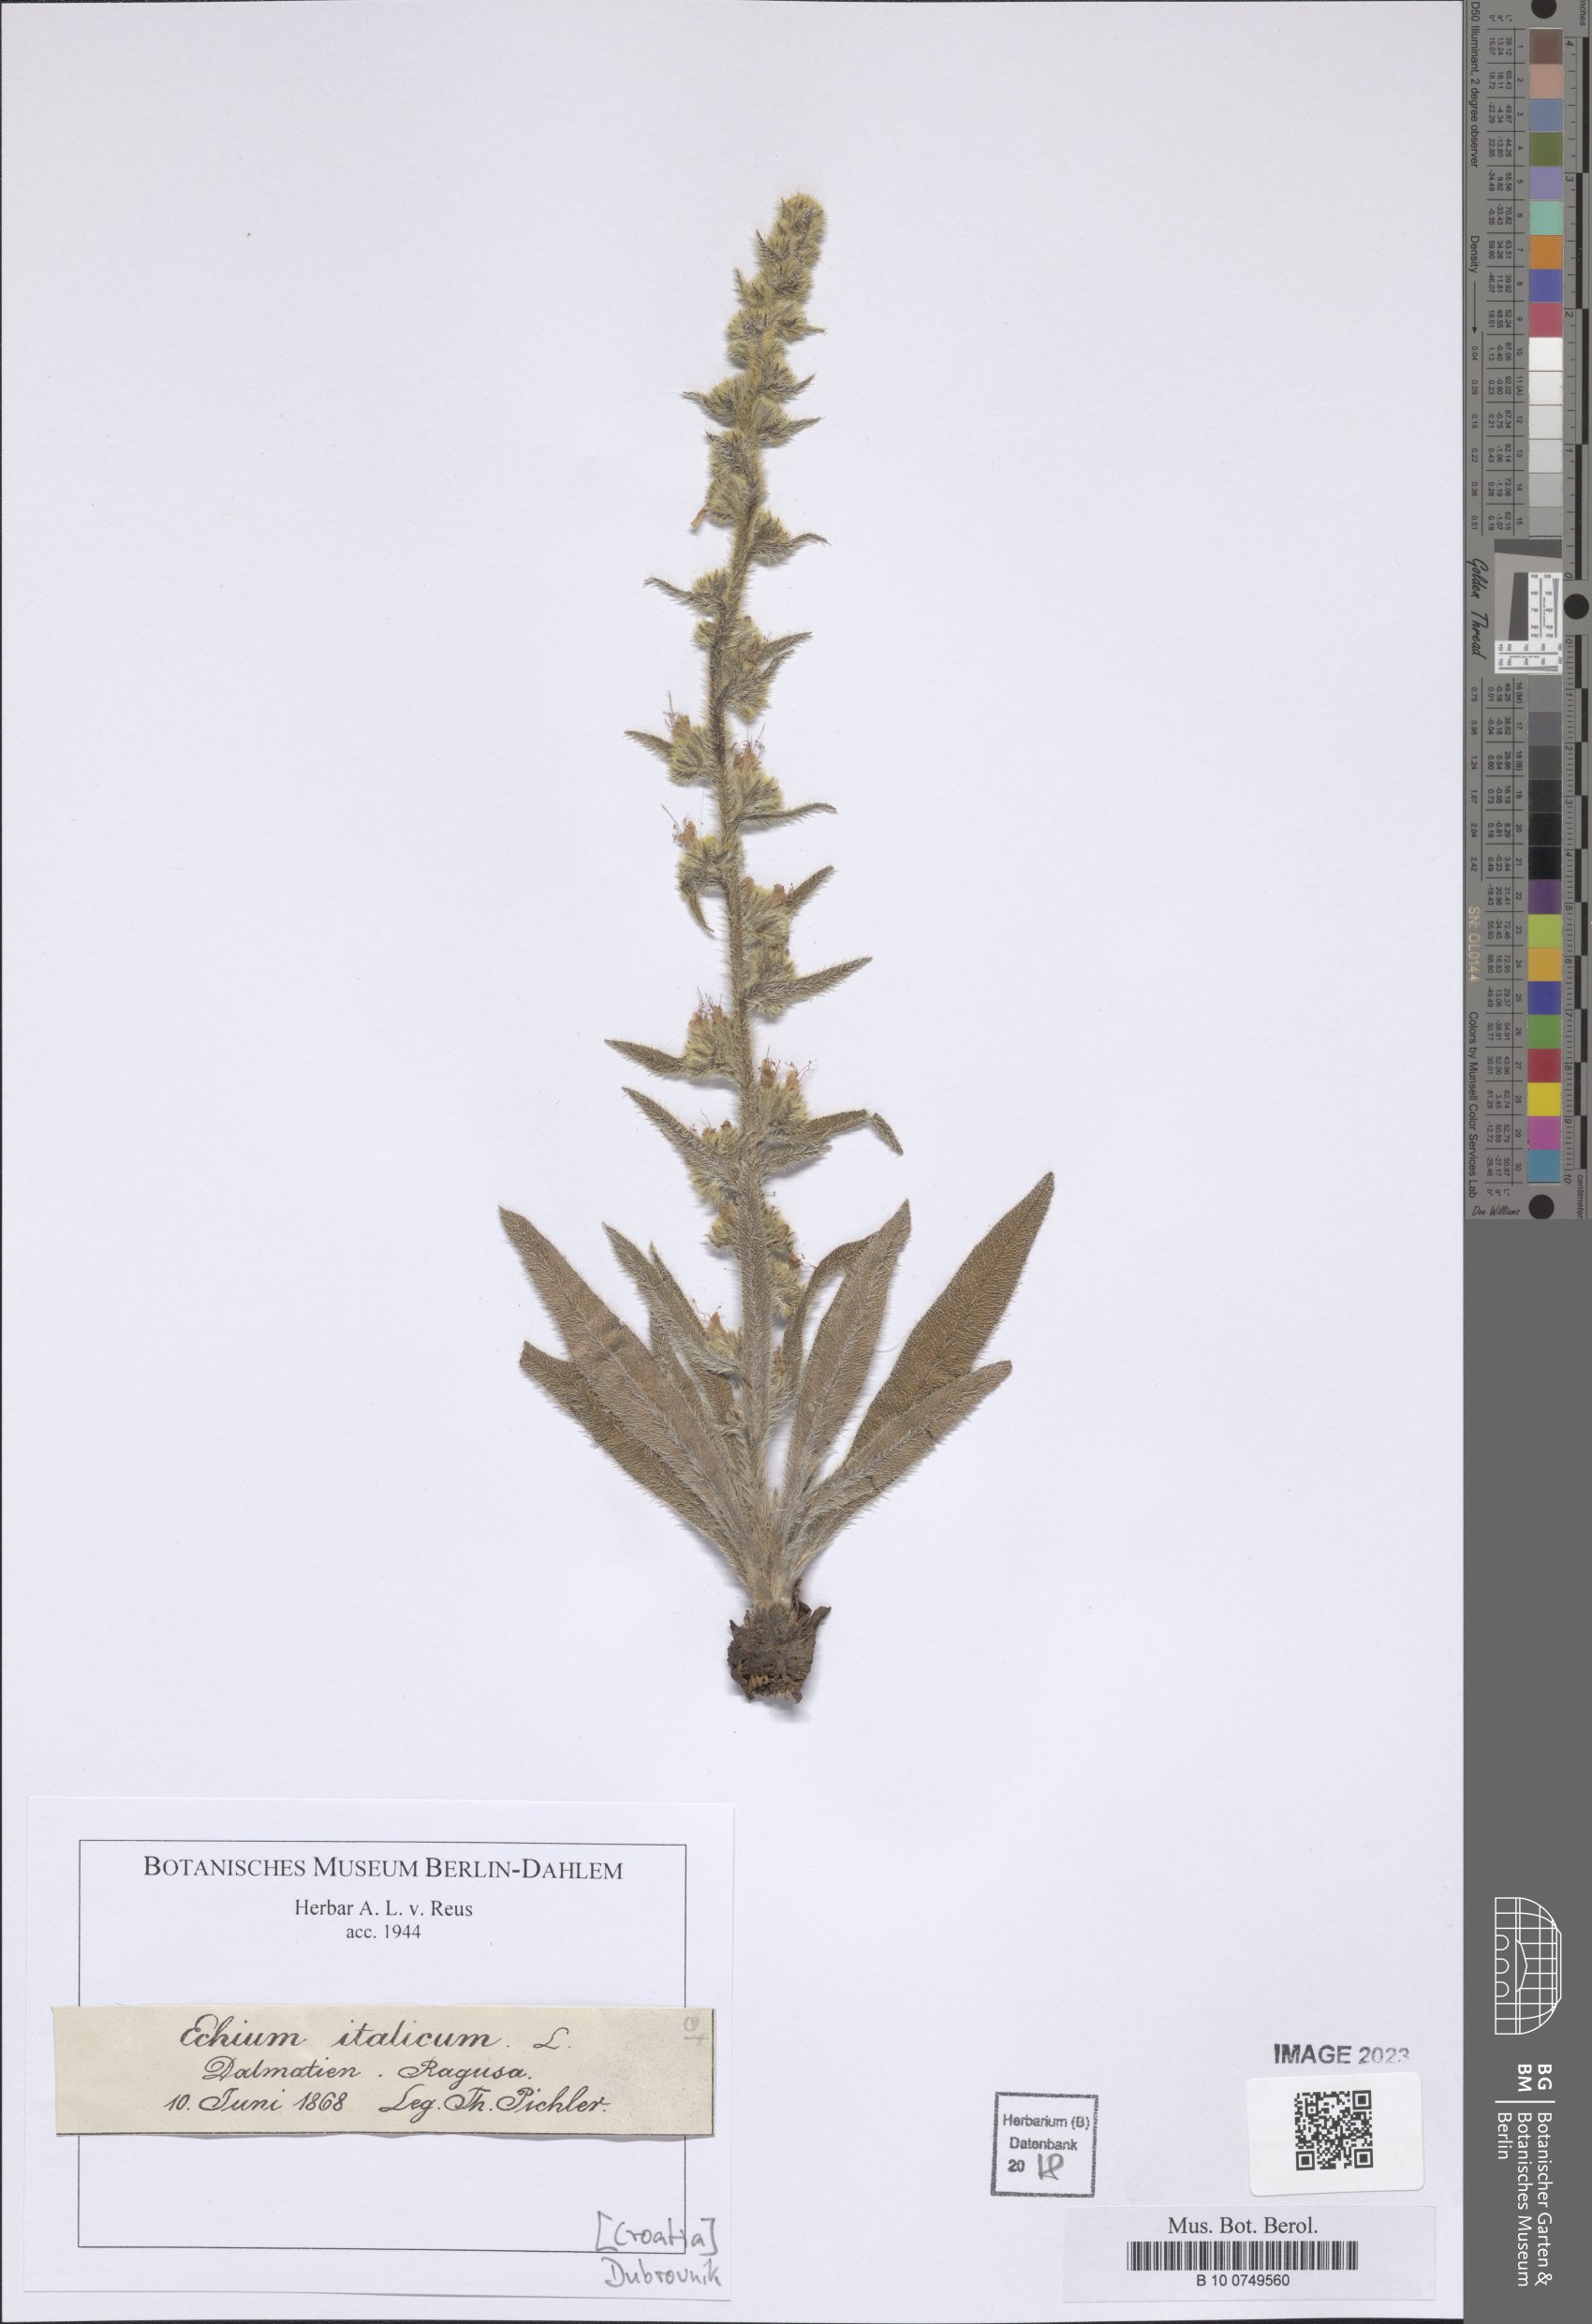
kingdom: Plantae
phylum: Tracheophyta
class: Magnoliopsida
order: Boraginales
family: Boraginaceae
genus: Echium
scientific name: Echium italicum
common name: Italian viper's bugloss
